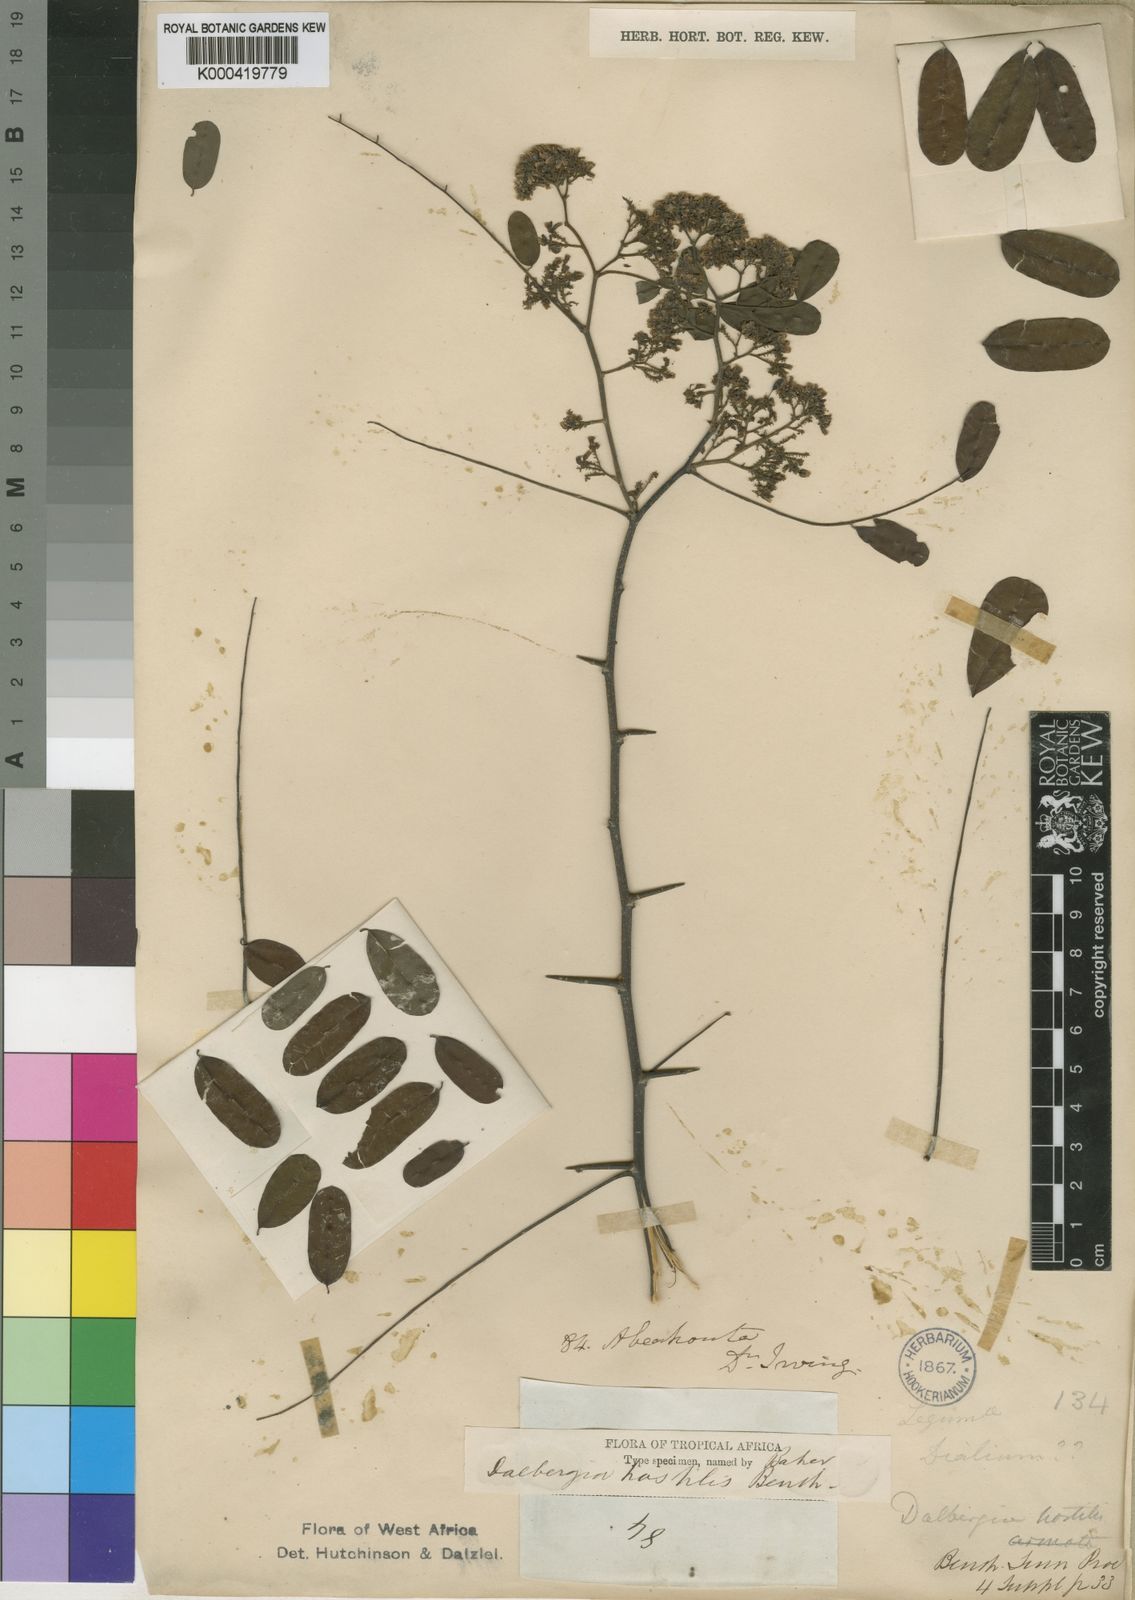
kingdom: Plantae
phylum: Tracheophyta
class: Magnoliopsida
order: Fabales
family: Fabaceae
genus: Dalbergia
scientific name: Dalbergia hostilis
